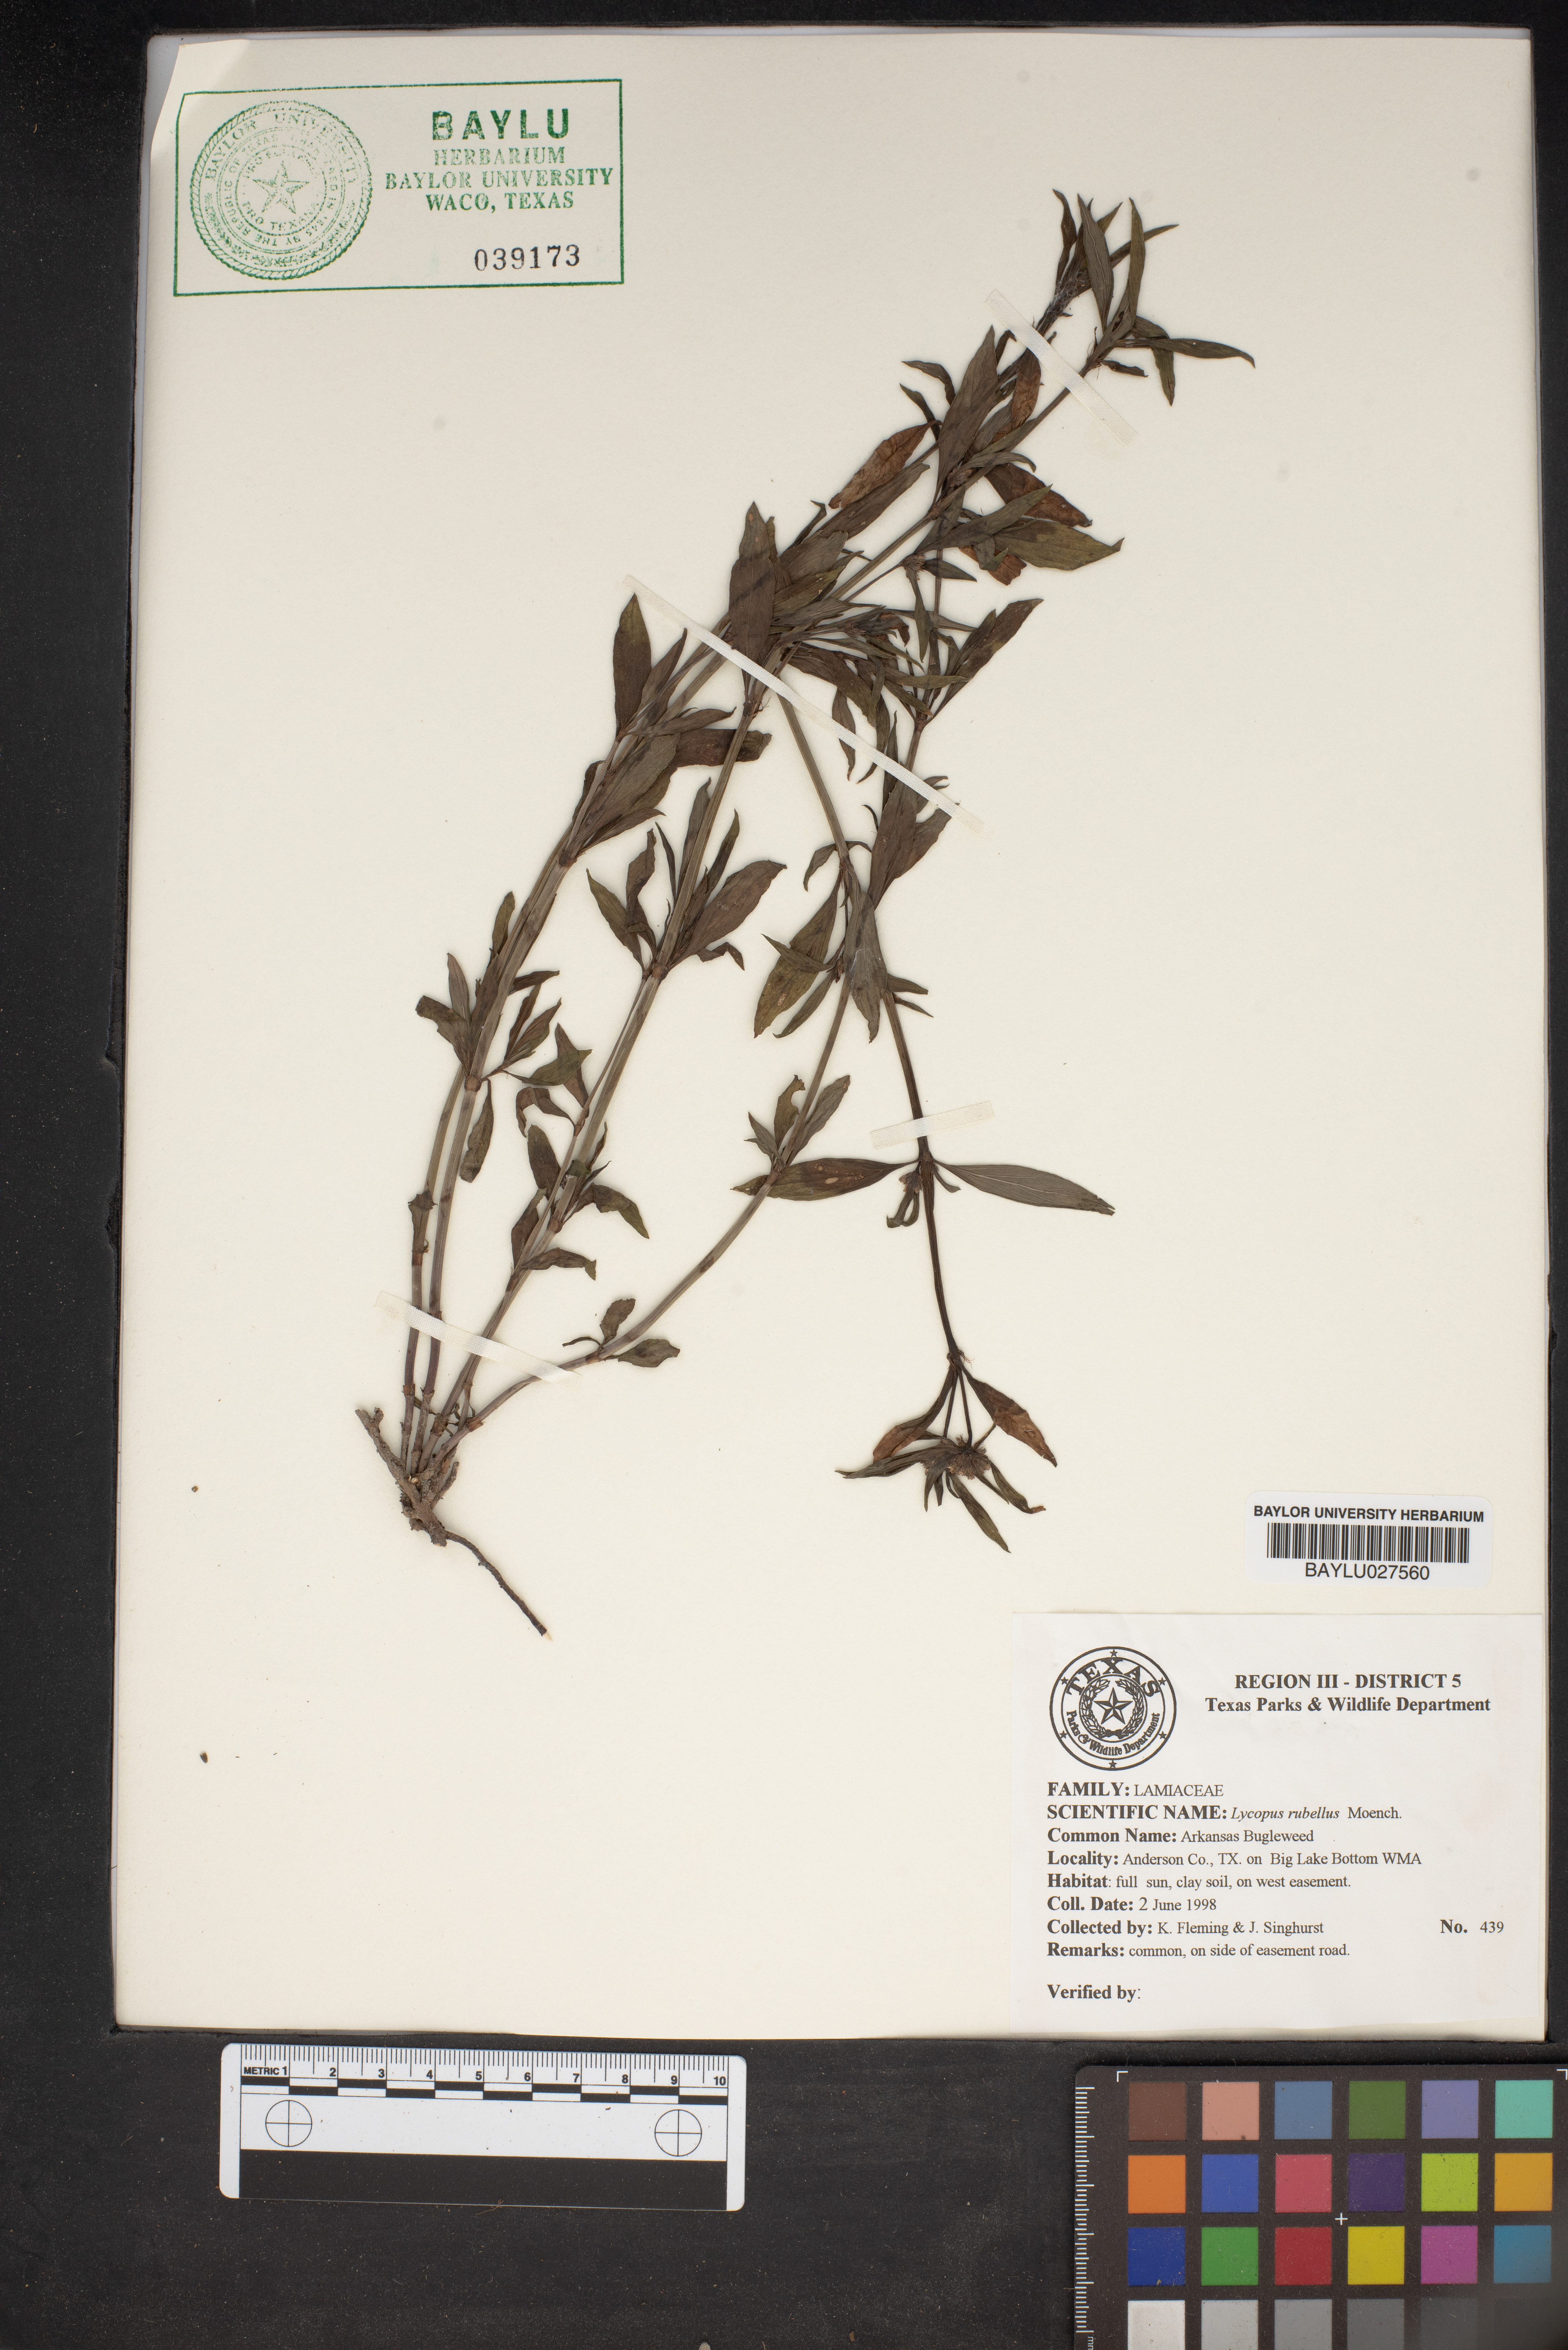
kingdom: Plantae
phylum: Tracheophyta
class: Magnoliopsida
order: Lamiales
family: Lamiaceae
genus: Lycopus
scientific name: Lycopus rubellus
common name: Stalked bugleweed
